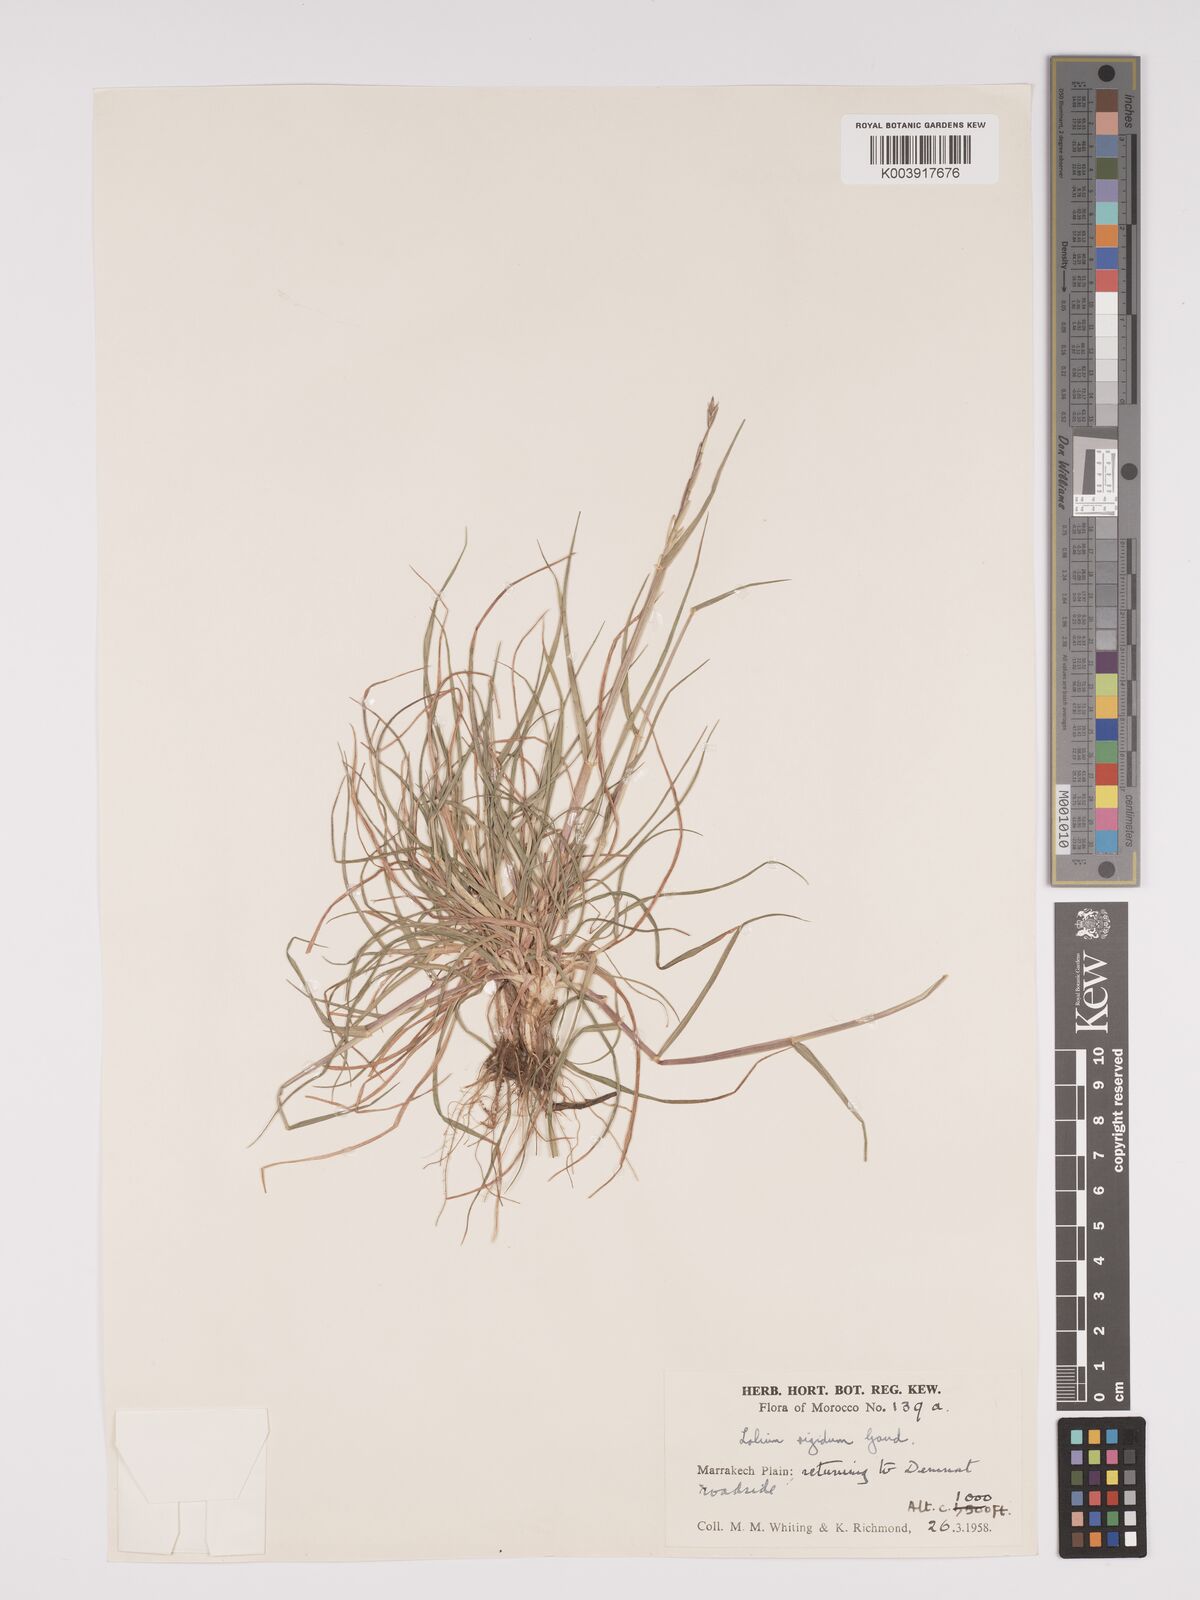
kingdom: Plantae
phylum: Tracheophyta
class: Liliopsida
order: Poales
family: Poaceae
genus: Lolium
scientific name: Lolium rigidum
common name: Wimmera ryegrass
